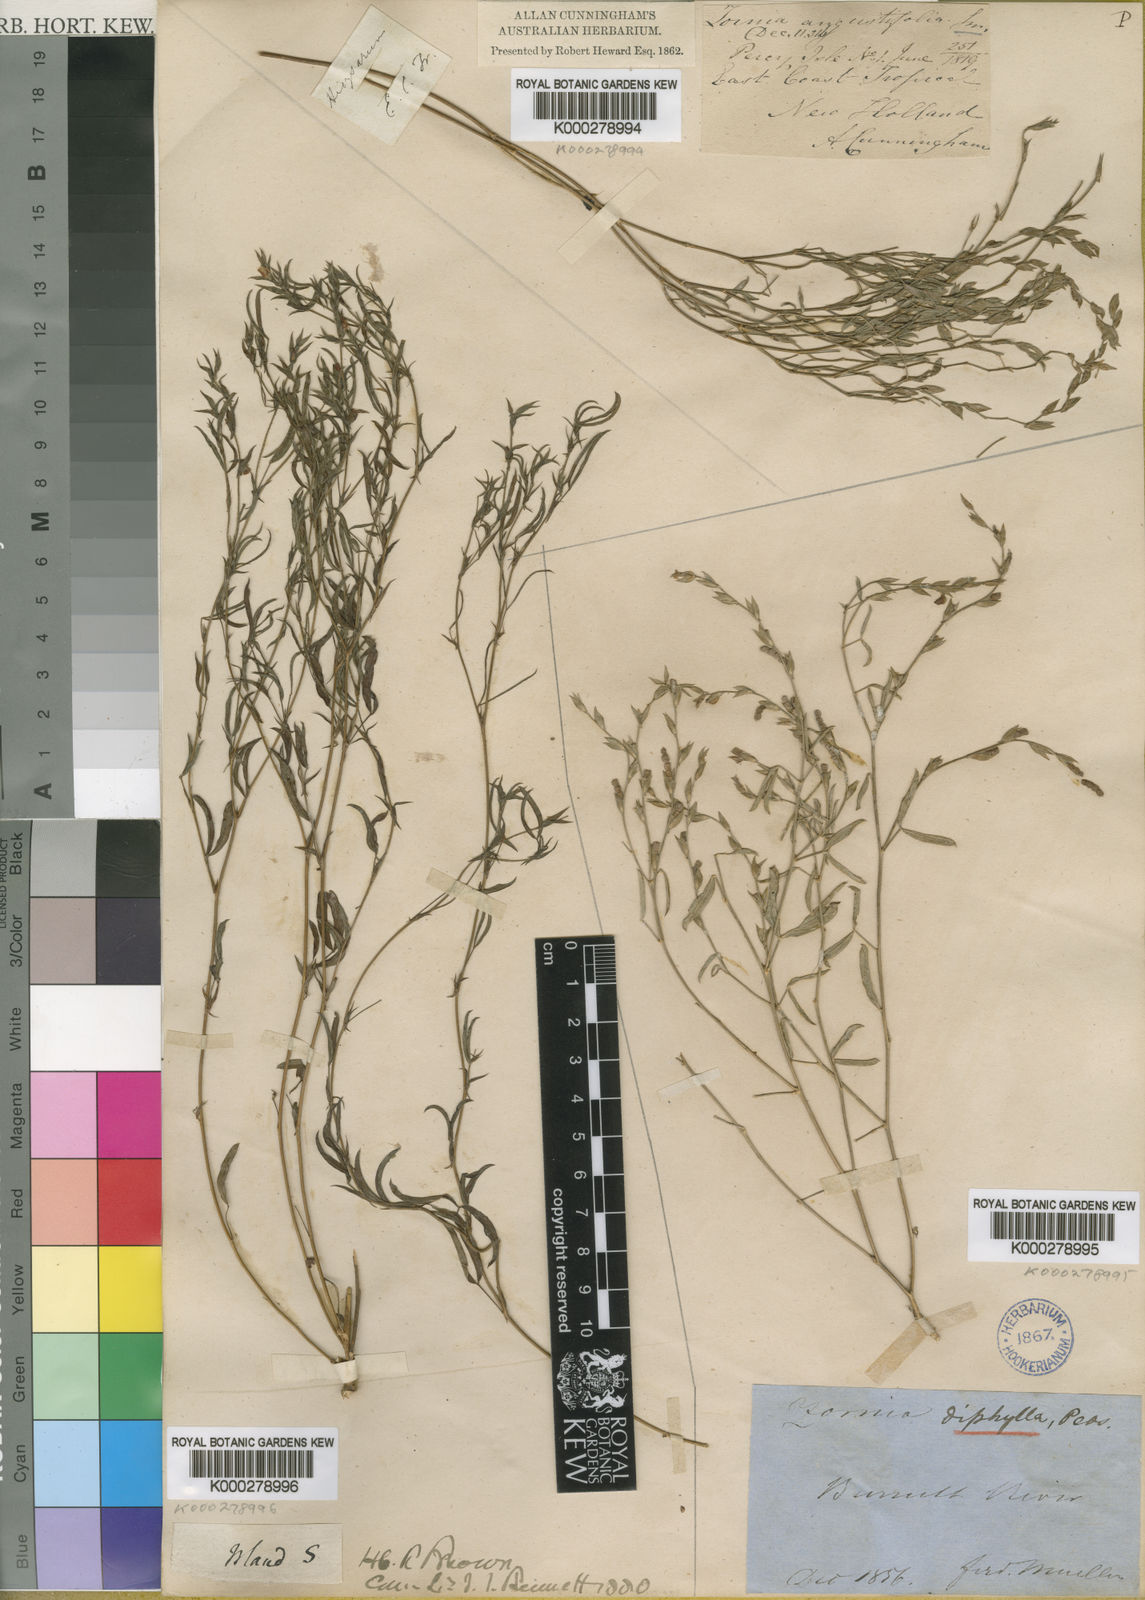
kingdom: Plantae
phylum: Tracheophyta
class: Magnoliopsida
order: Fabales
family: Fabaceae
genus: Zornia
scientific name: Zornia diphylla
